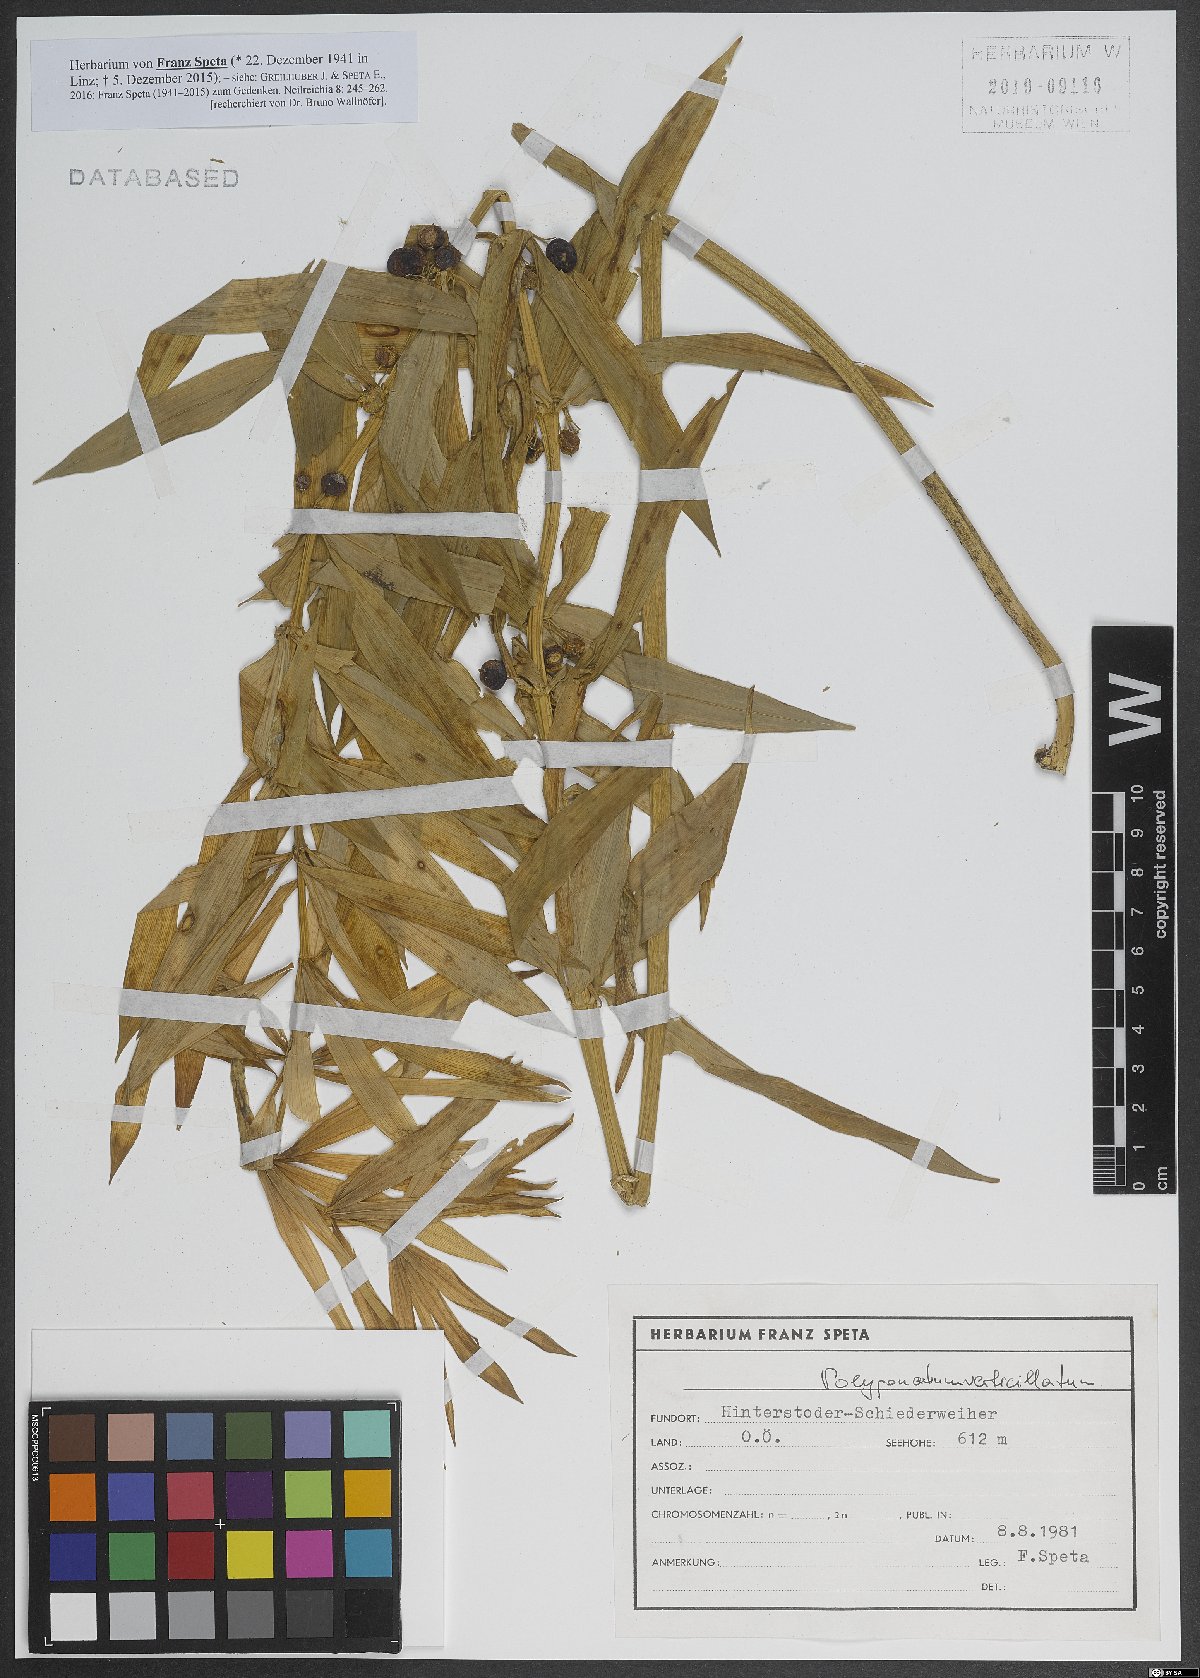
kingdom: Plantae
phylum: Tracheophyta
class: Liliopsida
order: Asparagales
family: Asparagaceae
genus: Polygonatum
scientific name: Polygonatum verticillatum
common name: Whorled solomon's-seal
